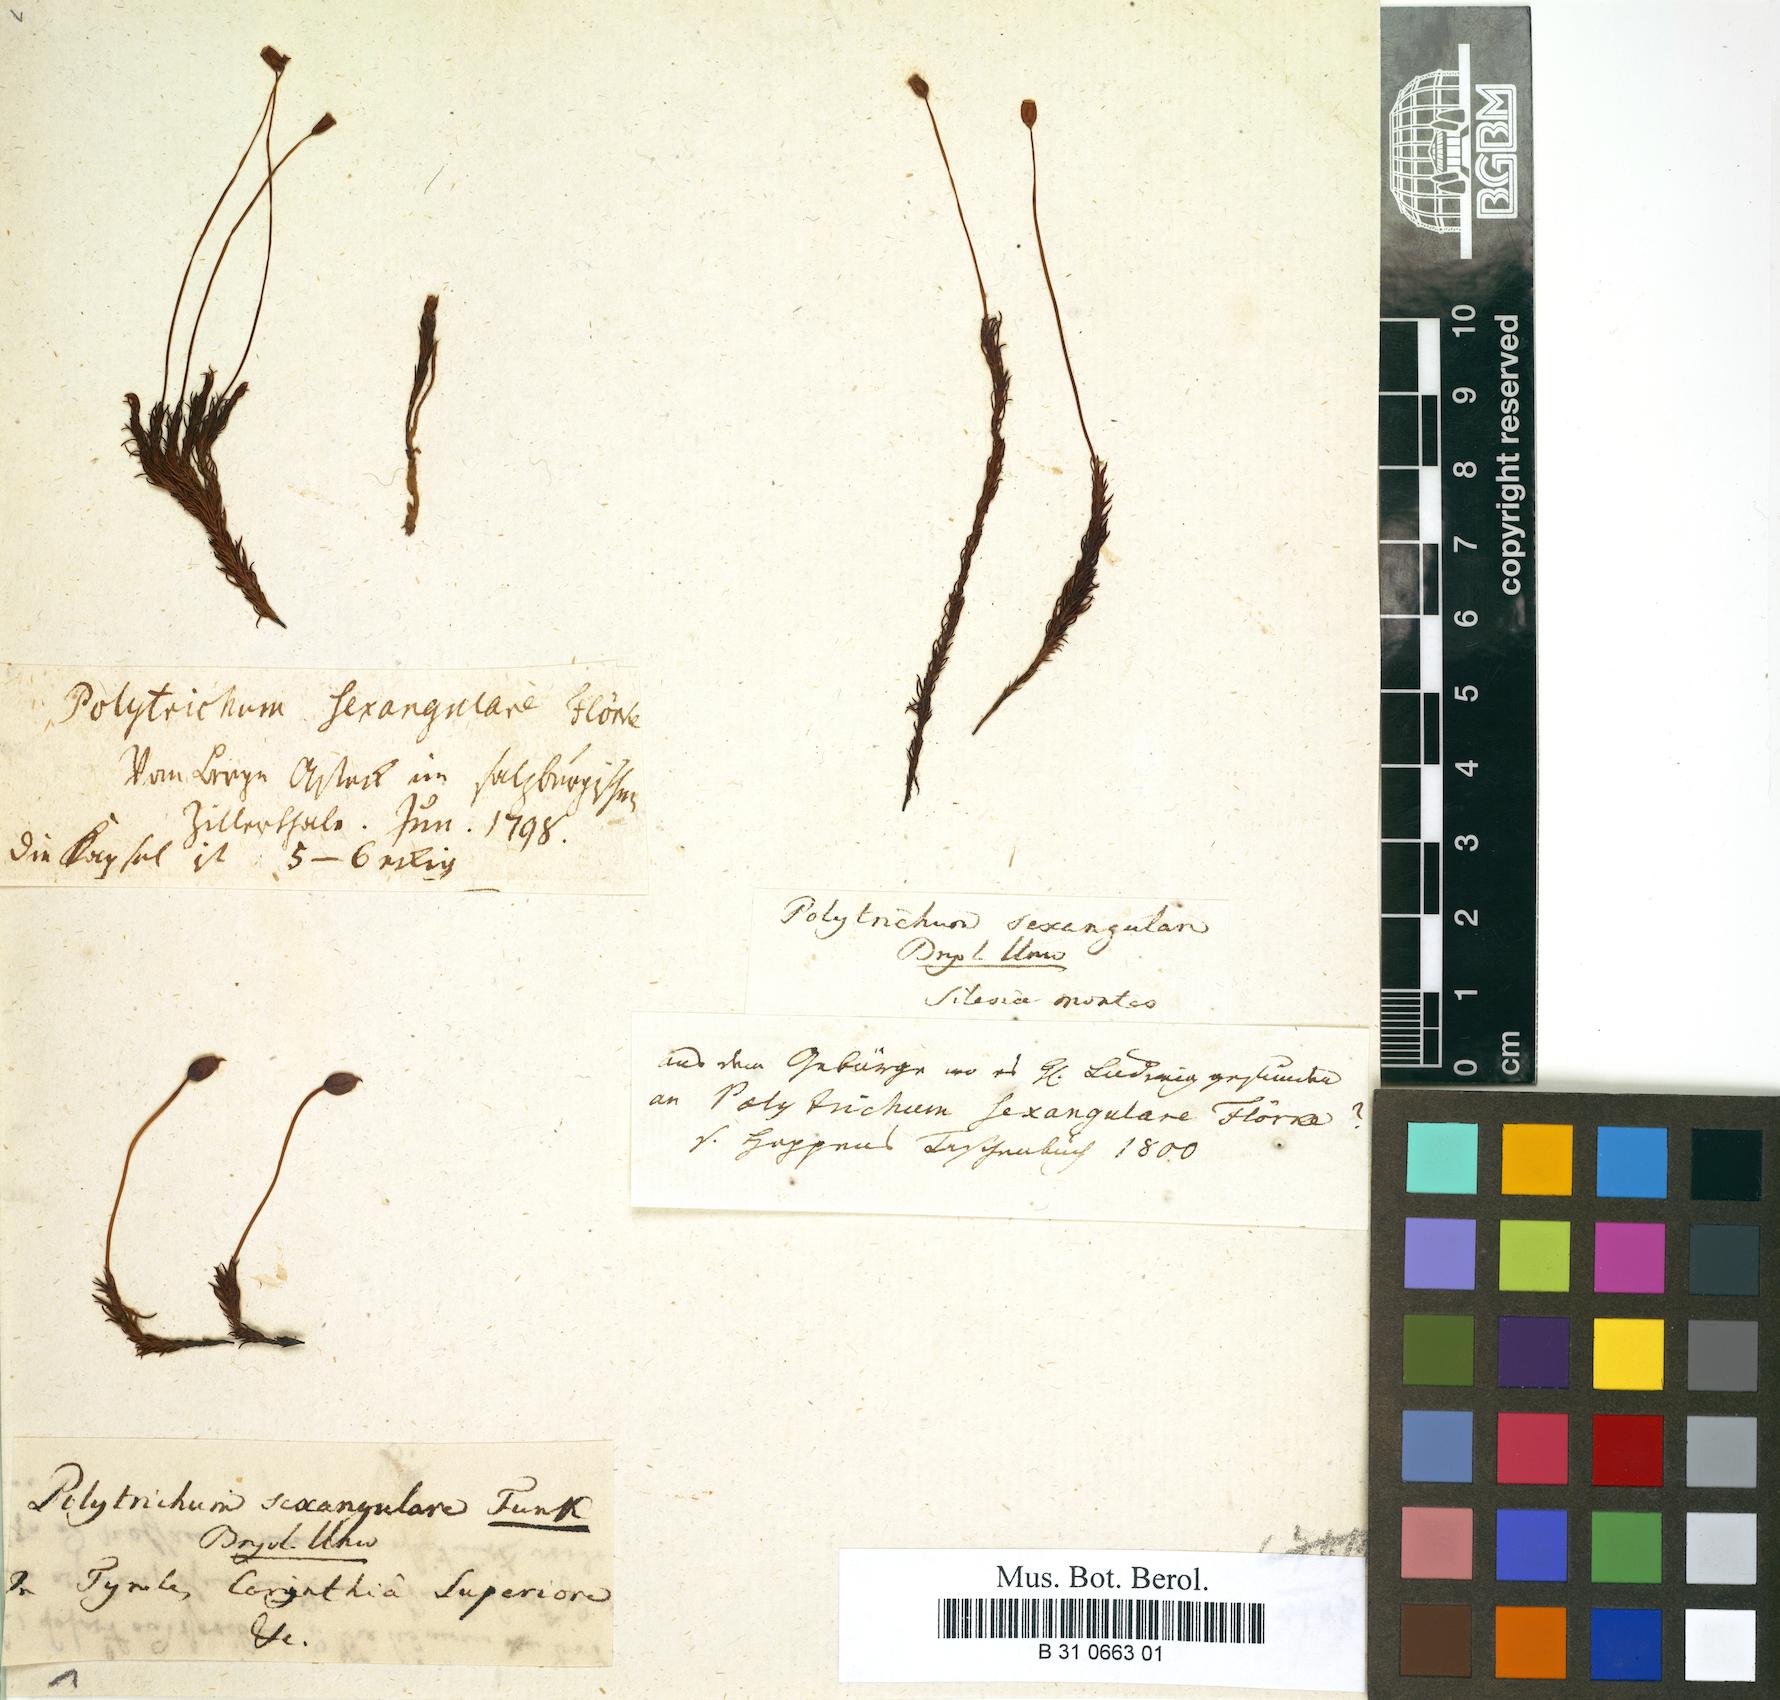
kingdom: Plantae
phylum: Bryophyta
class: Polytrichopsida
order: Polytrichales
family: Polytrichaceae
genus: Polytrichastrum
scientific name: Polytrichastrum sexangulare
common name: Northern haircap
